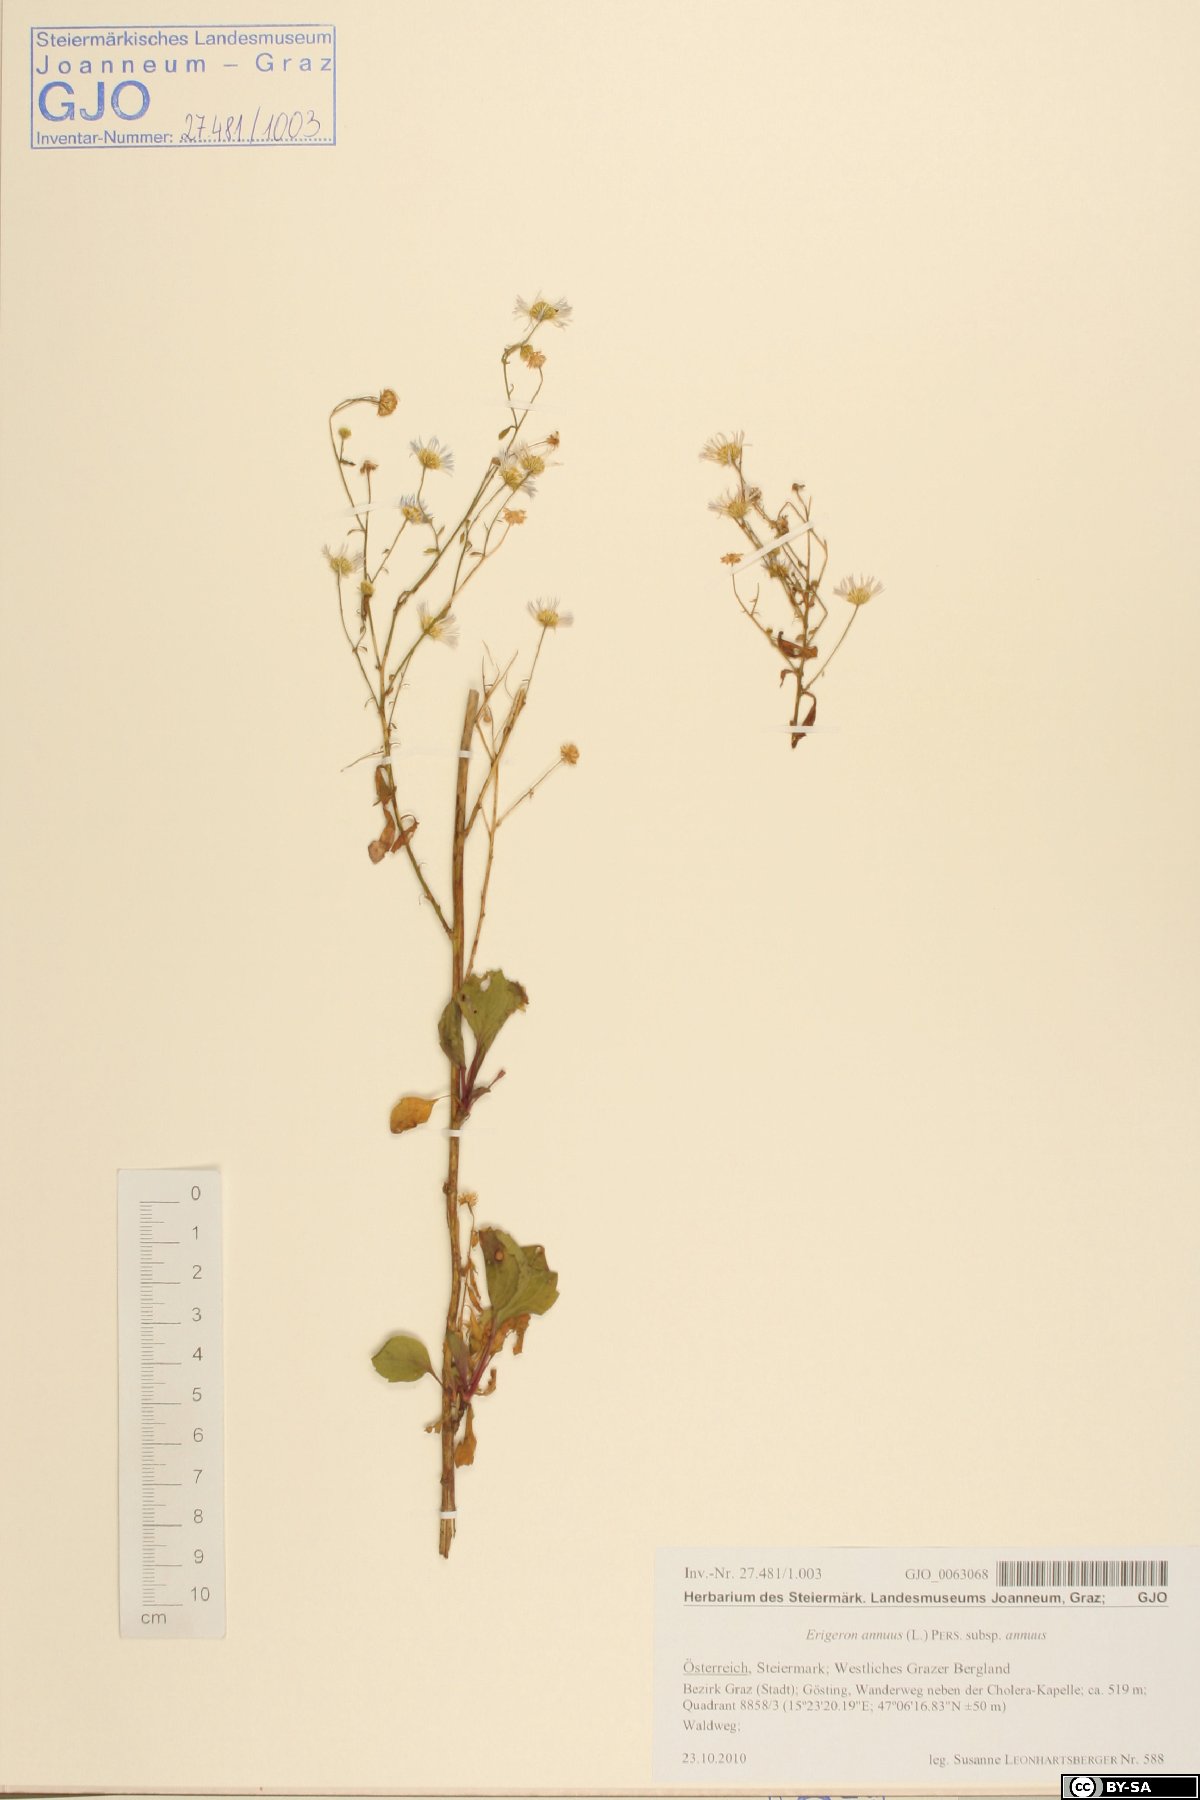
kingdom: Plantae
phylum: Tracheophyta
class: Magnoliopsida
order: Asterales
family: Asteraceae
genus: Erigeron
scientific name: Erigeron annuus
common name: Tall fleabane
